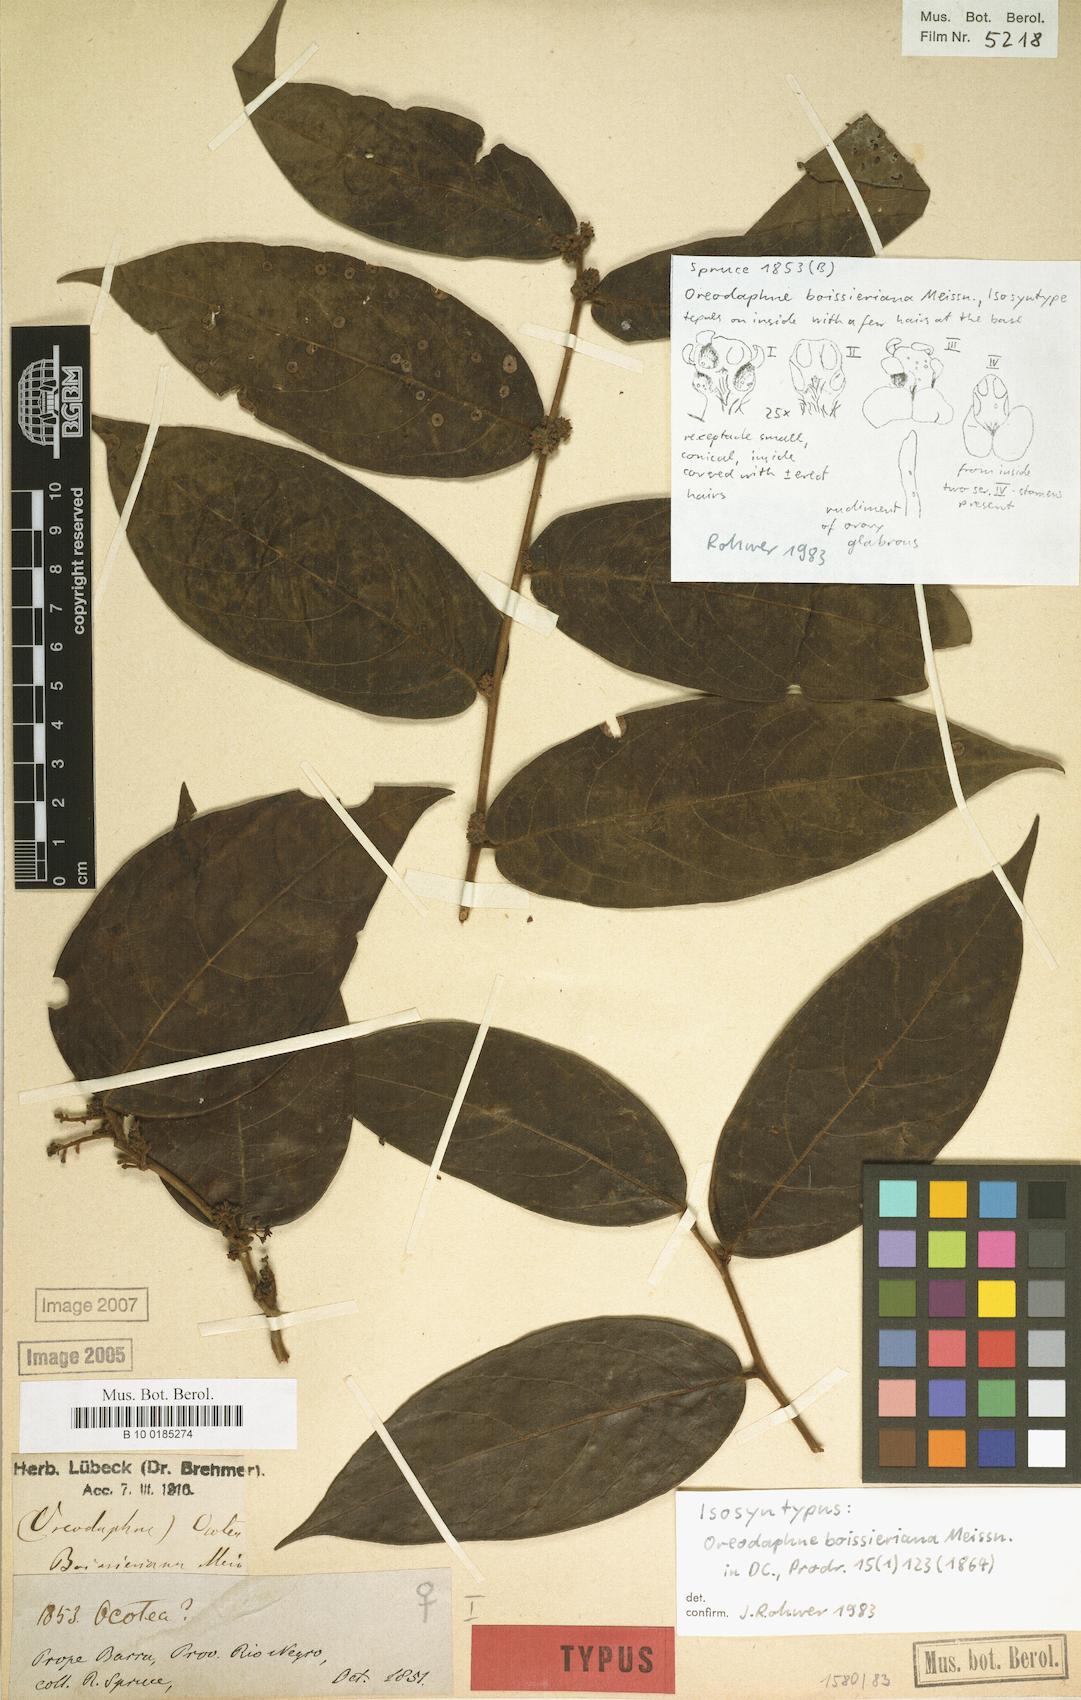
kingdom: Plantae
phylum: Tracheophyta
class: Magnoliopsida
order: Laurales
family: Lauraceae
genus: Ocotea
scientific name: Ocotea boissieriana
